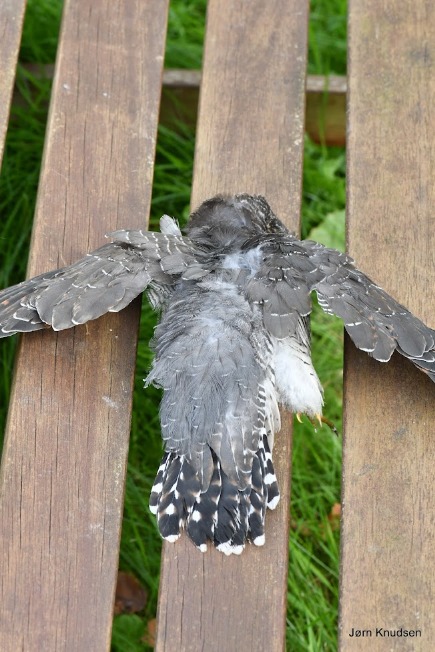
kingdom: Animalia
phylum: Chordata
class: Aves
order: Cuculiformes
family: Cuculidae
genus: Cuculus
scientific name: Cuculus canorus
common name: Gøg
